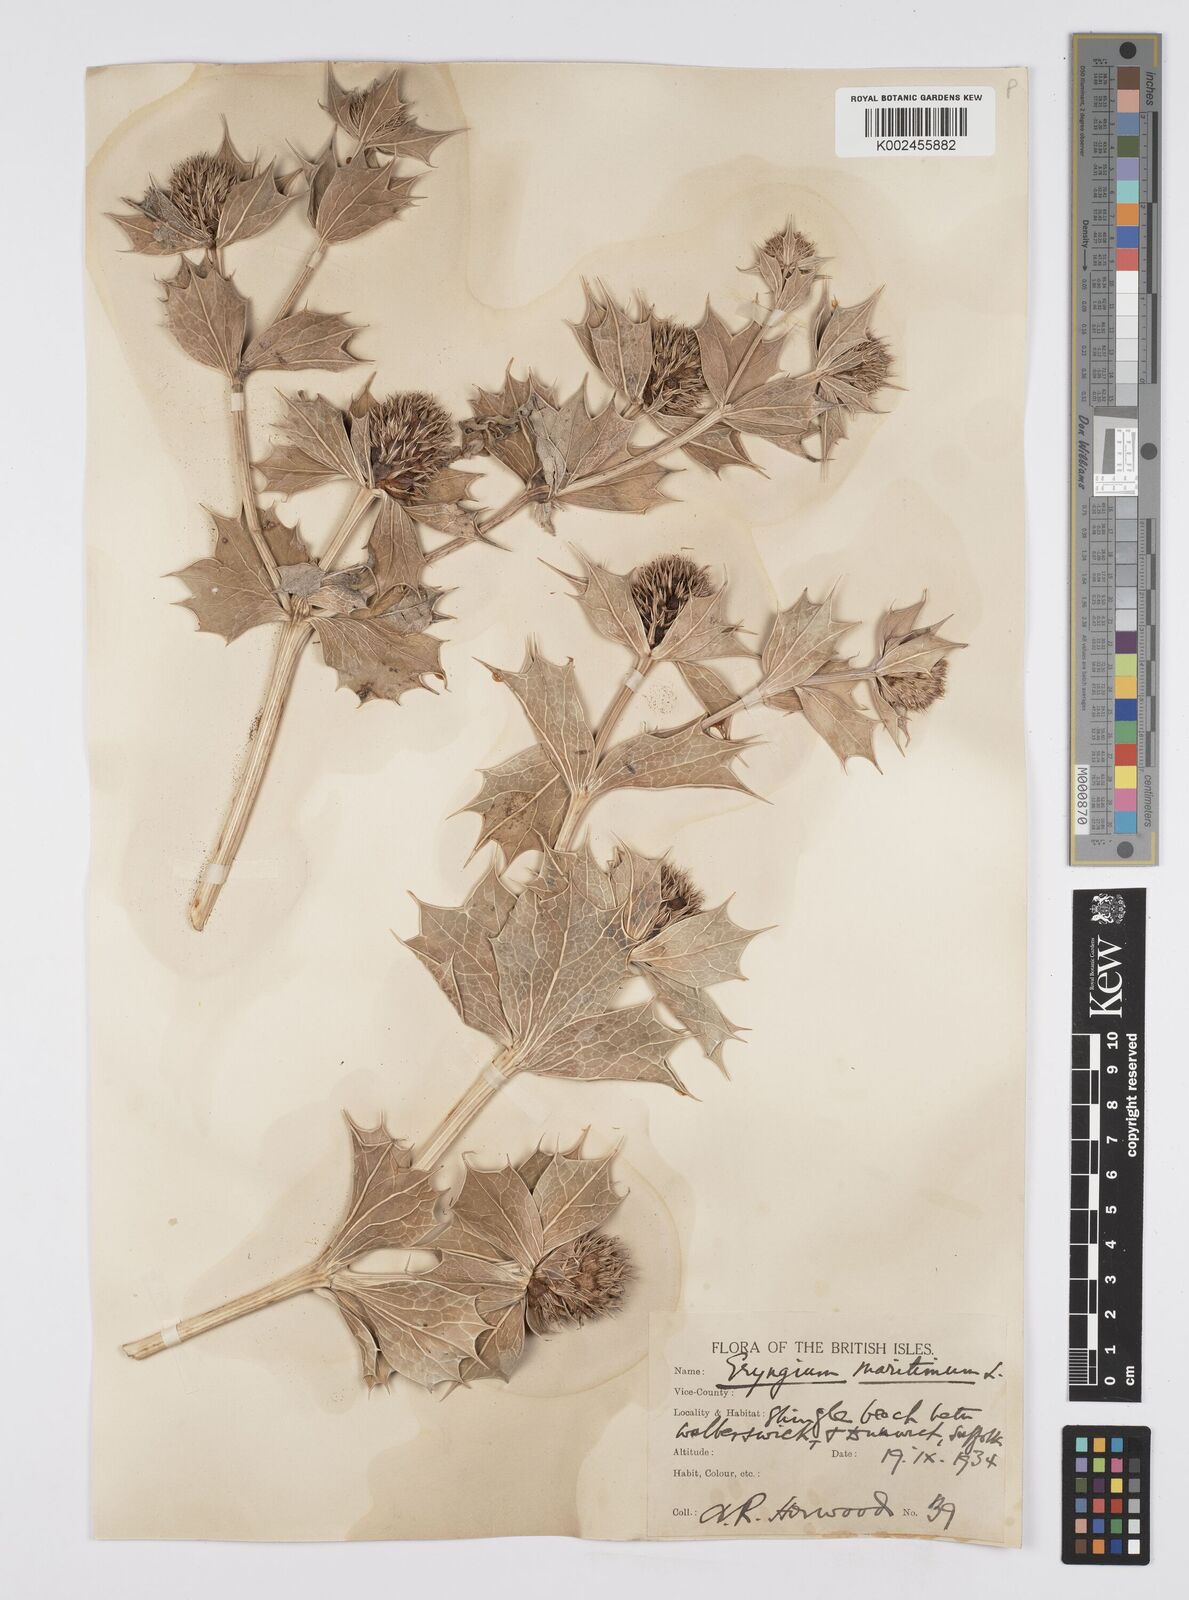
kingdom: Plantae
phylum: Tracheophyta
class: Magnoliopsida
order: Apiales
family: Apiaceae
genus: Eryngium
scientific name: Eryngium maritimum
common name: Sea-holly
